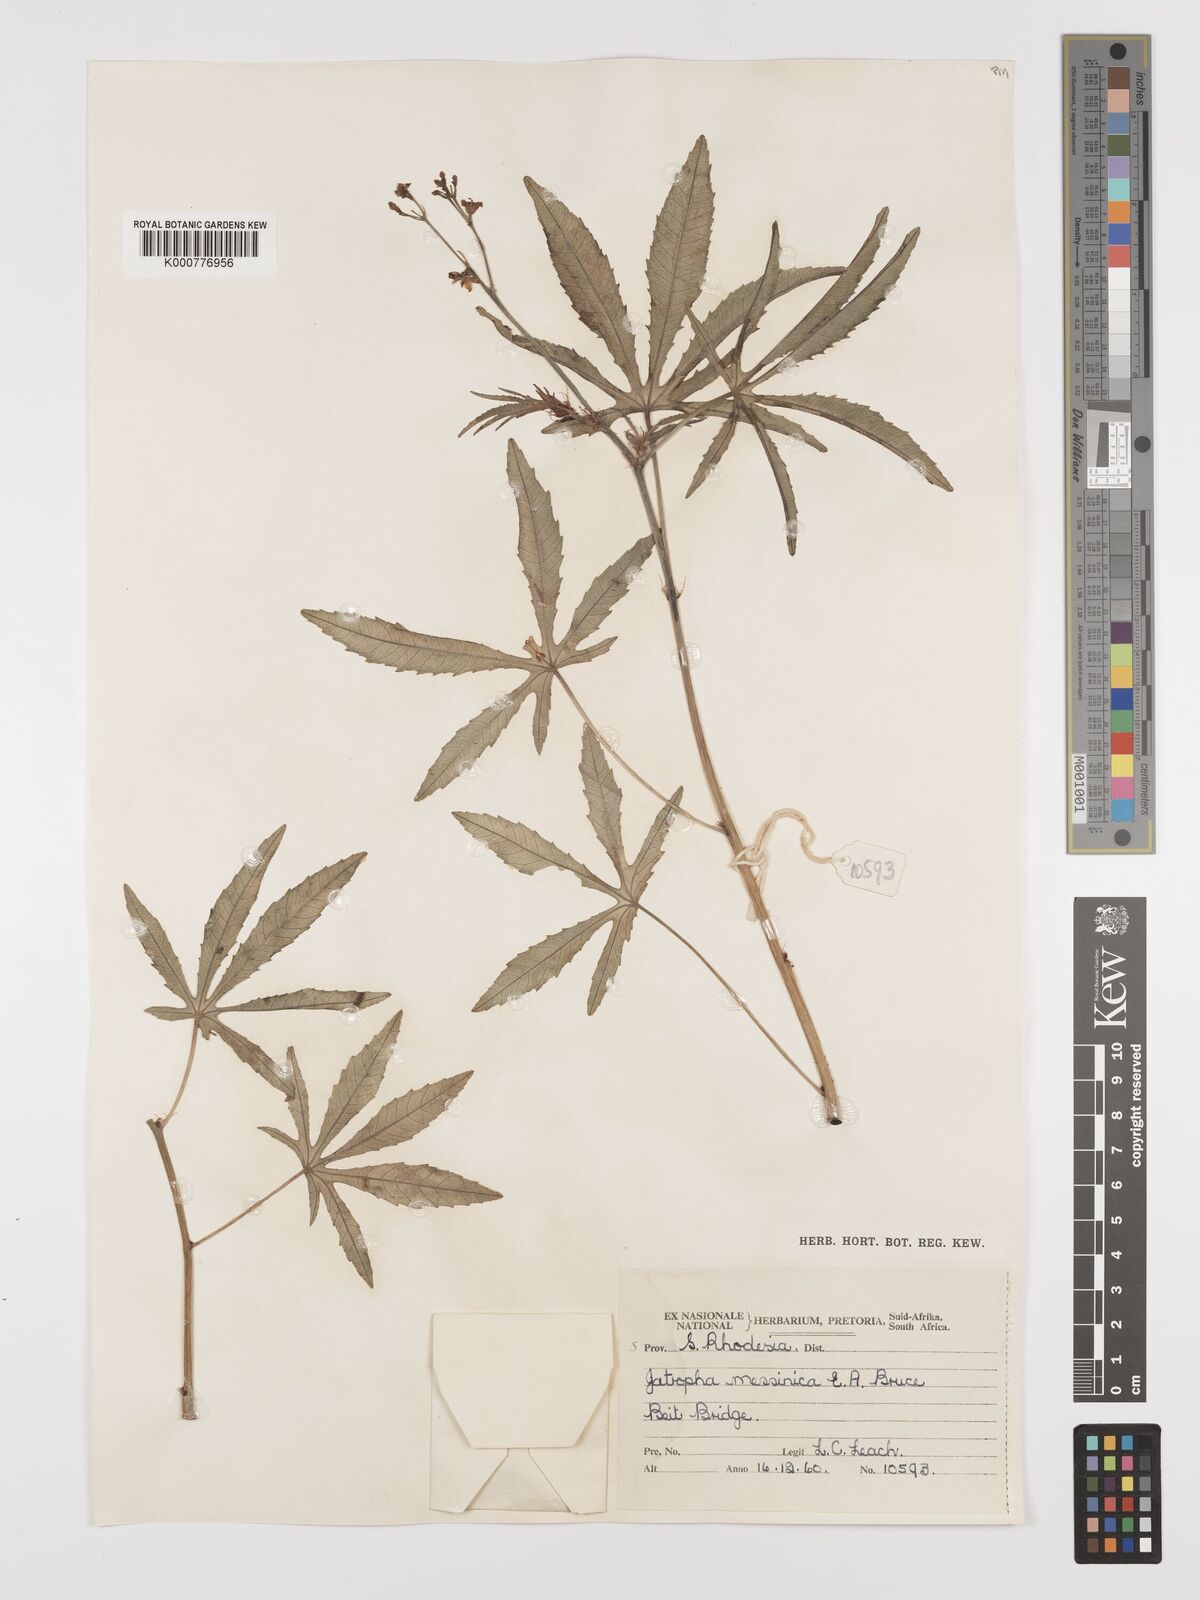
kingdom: Plantae
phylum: Tracheophyta
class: Magnoliopsida
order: Malpighiales
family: Euphorbiaceae
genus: Jatropha
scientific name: Jatropha spicata
